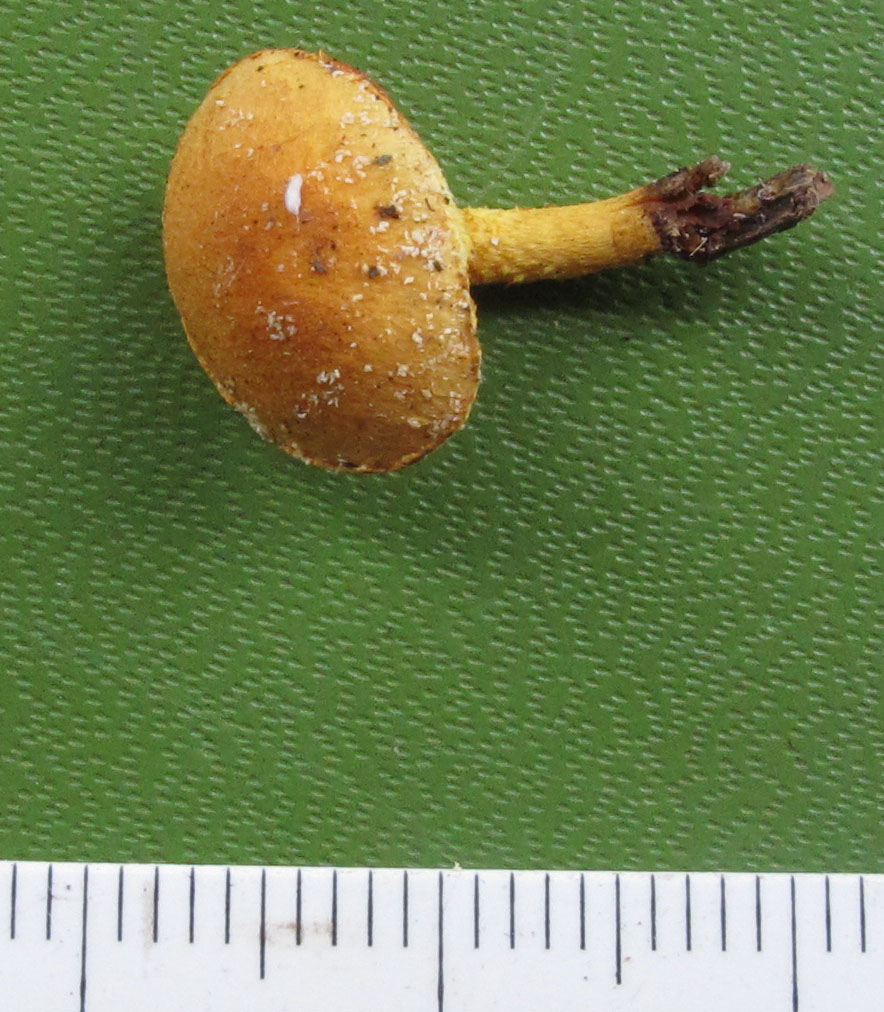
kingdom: Fungi
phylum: Basidiomycota
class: Agaricomycetes
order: Agaricales
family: Strophariaceae
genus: Pholiota
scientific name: Pholiota tuberculosa
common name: finskællet skælhat
